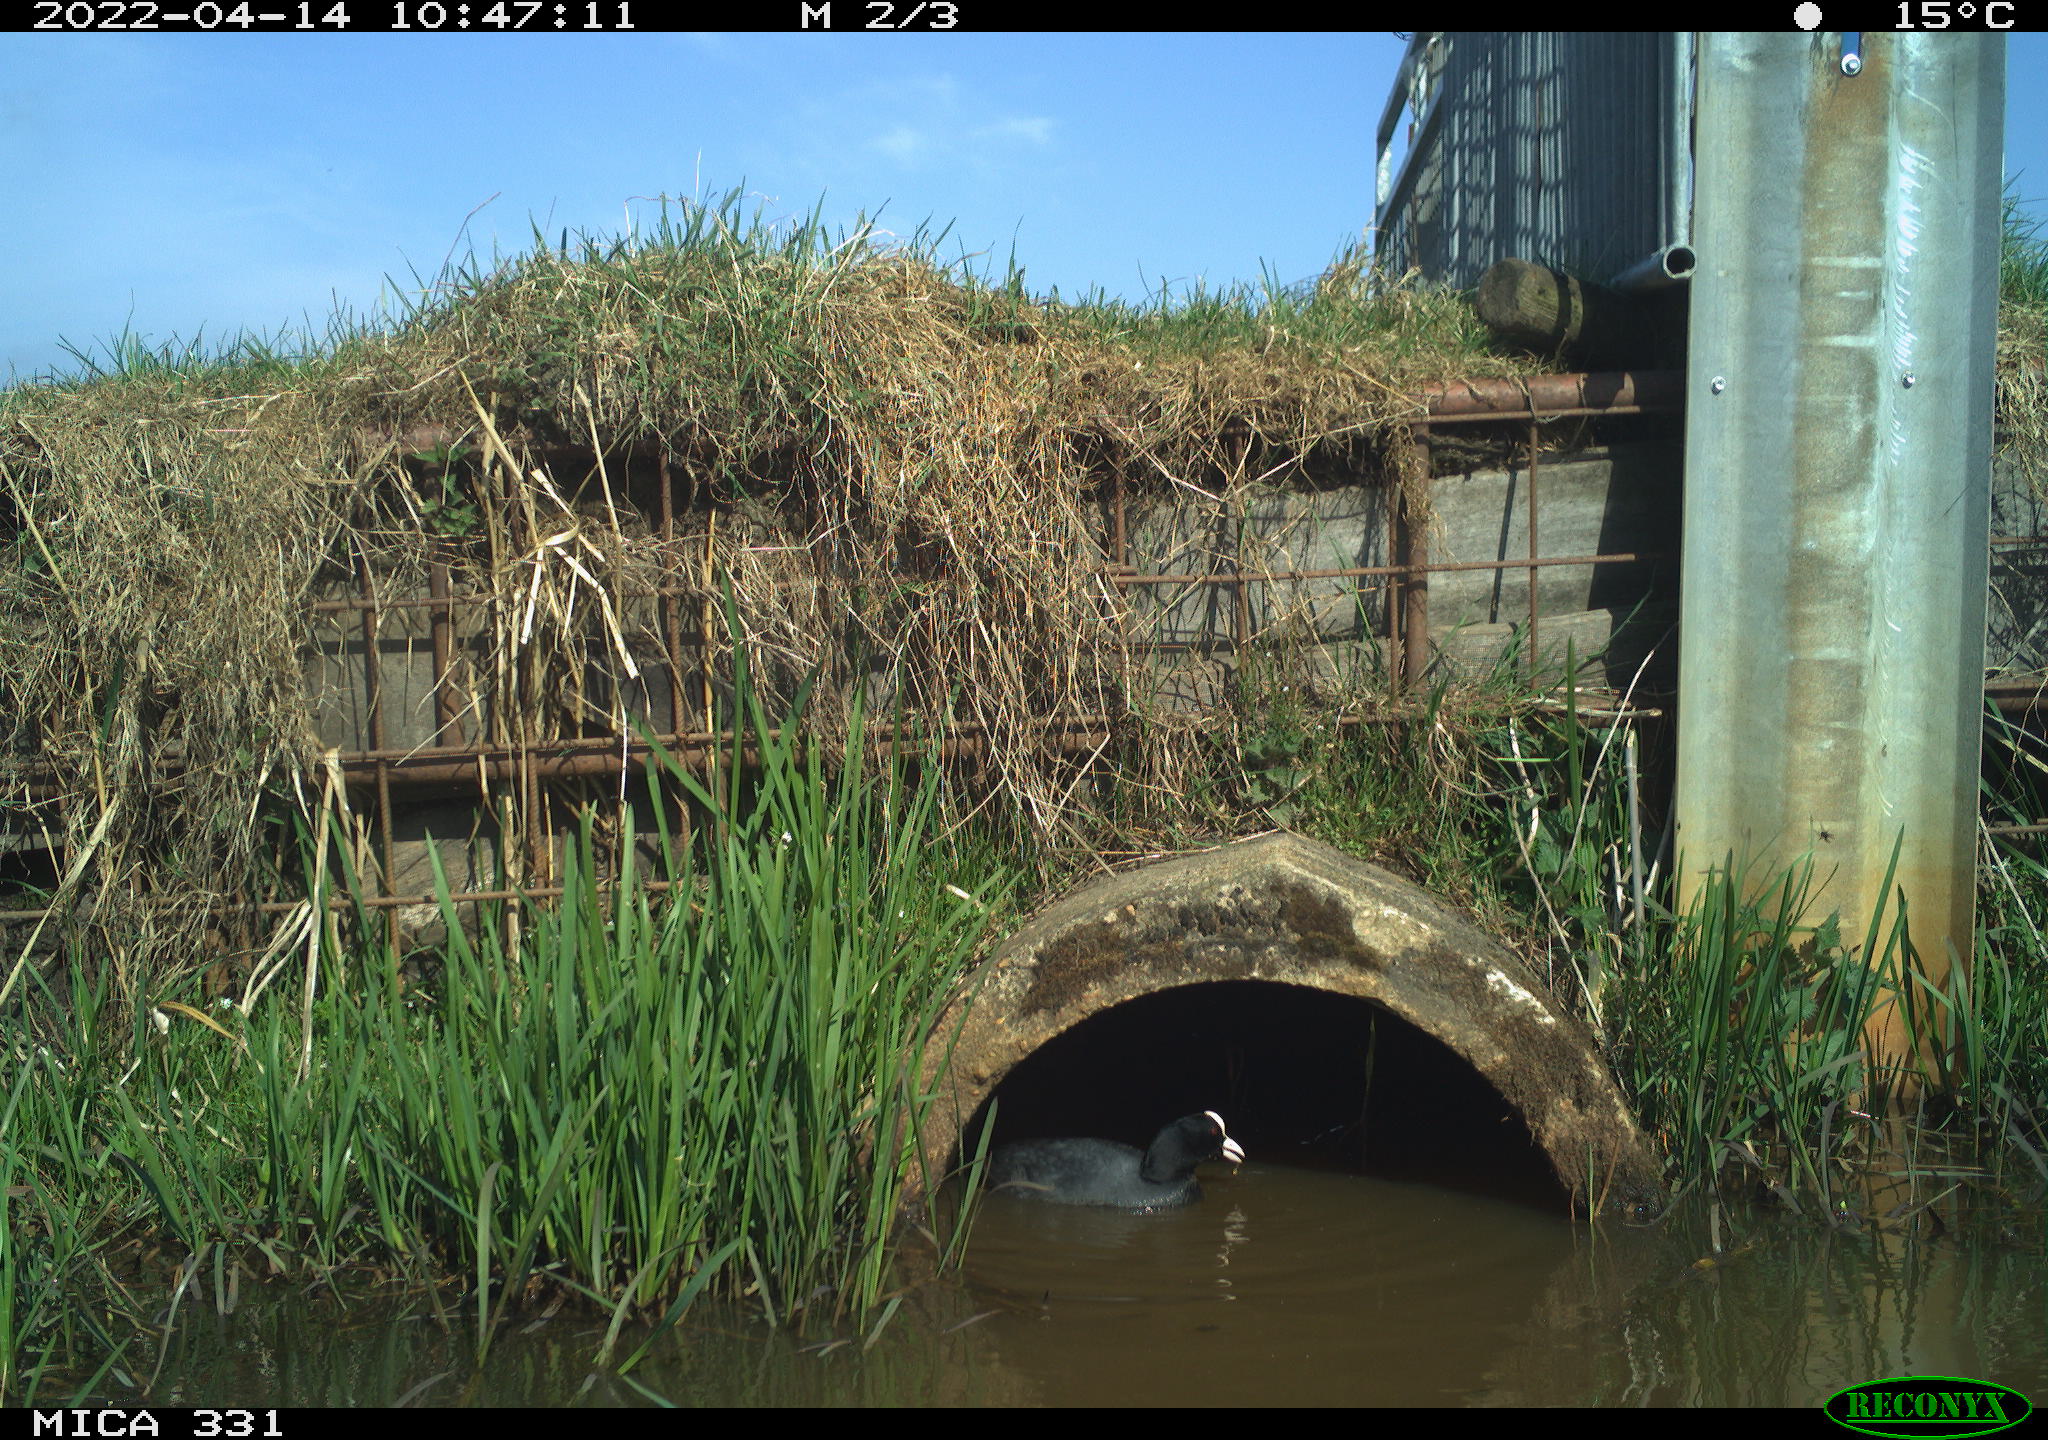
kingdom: Animalia
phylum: Chordata
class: Aves
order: Gruiformes
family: Rallidae
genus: Fulica
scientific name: Fulica atra
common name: Eurasian coot
